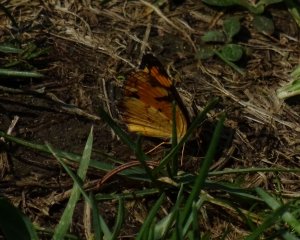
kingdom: Animalia
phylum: Arthropoda
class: Insecta
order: Lepidoptera
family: Nymphalidae
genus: Phyciodes
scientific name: Phyciodes tharos
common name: Pearl Crescent
